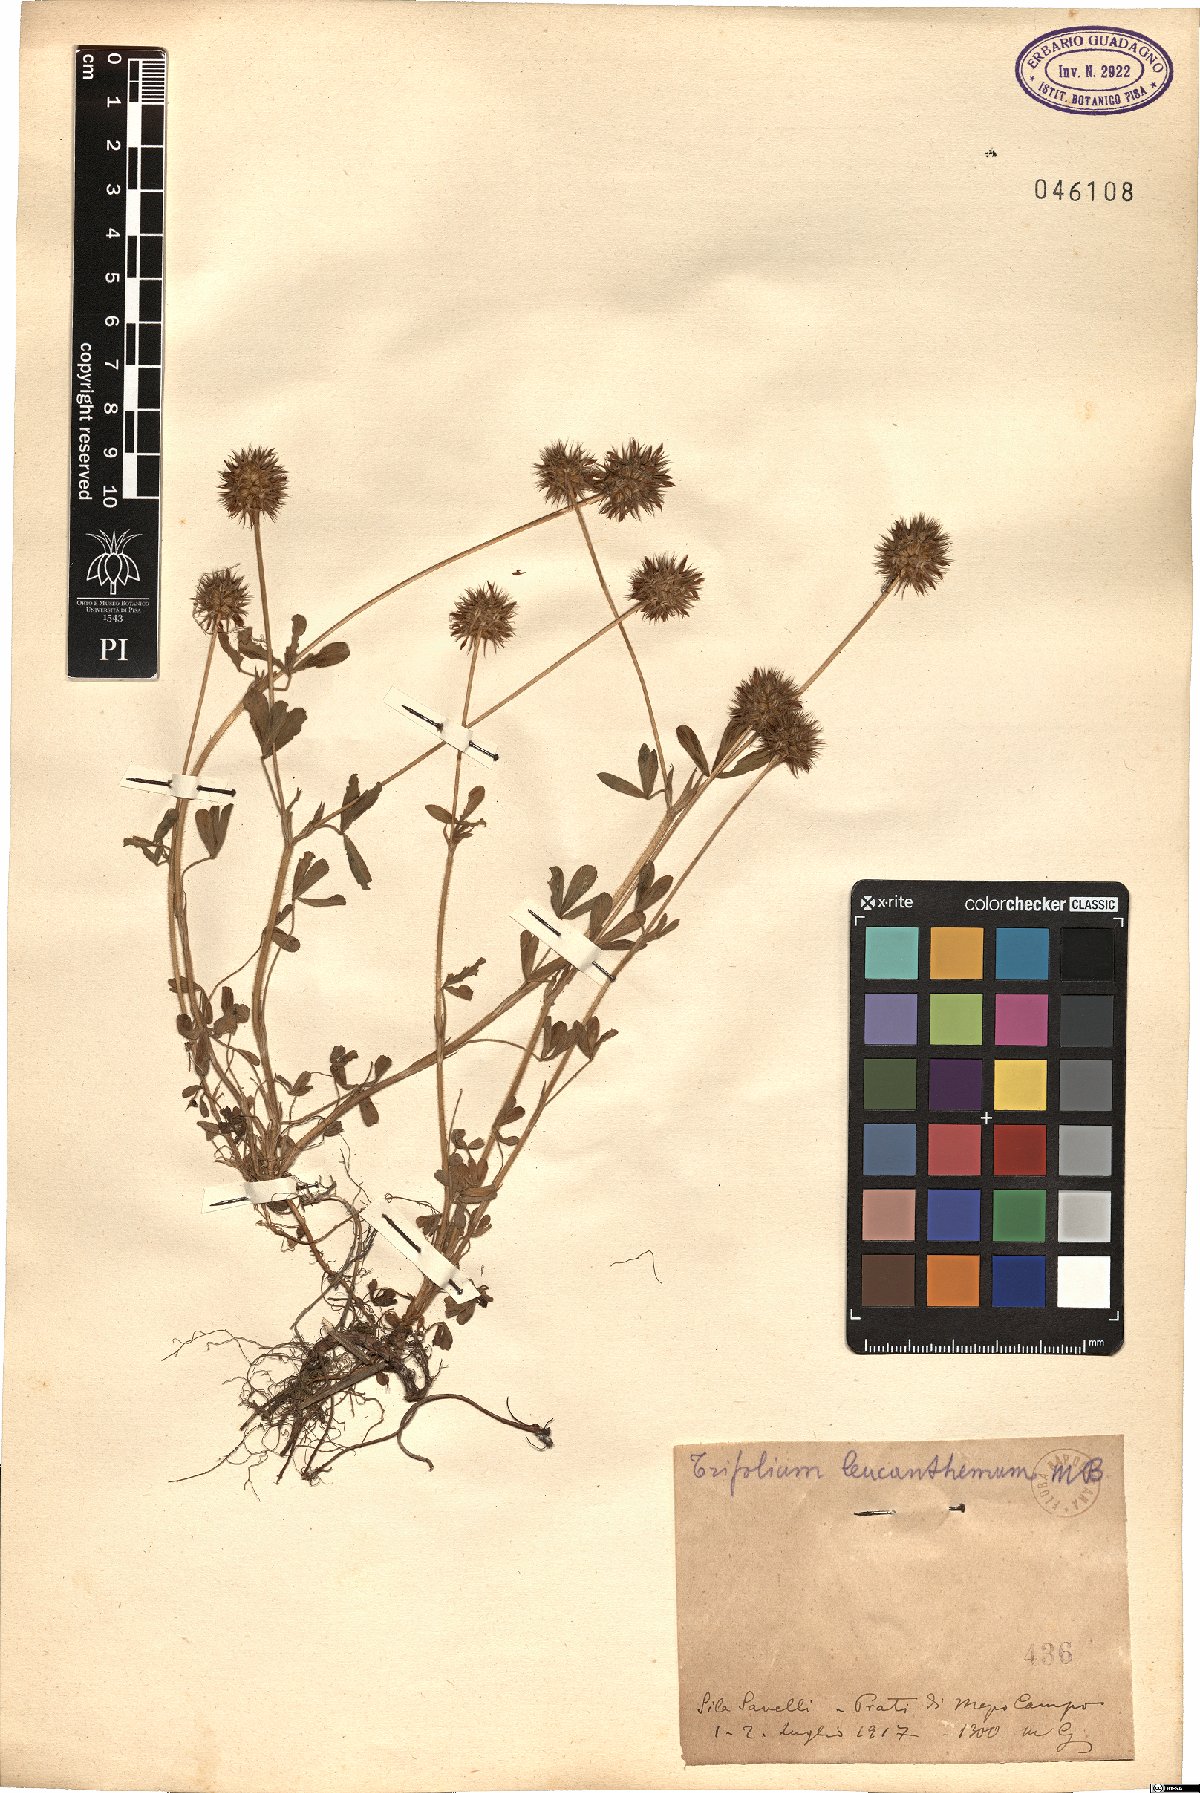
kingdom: Plantae
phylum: Tracheophyta
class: Magnoliopsida
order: Fabales
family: Fabaceae
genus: Trifolium
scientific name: Trifolium leucanthum
